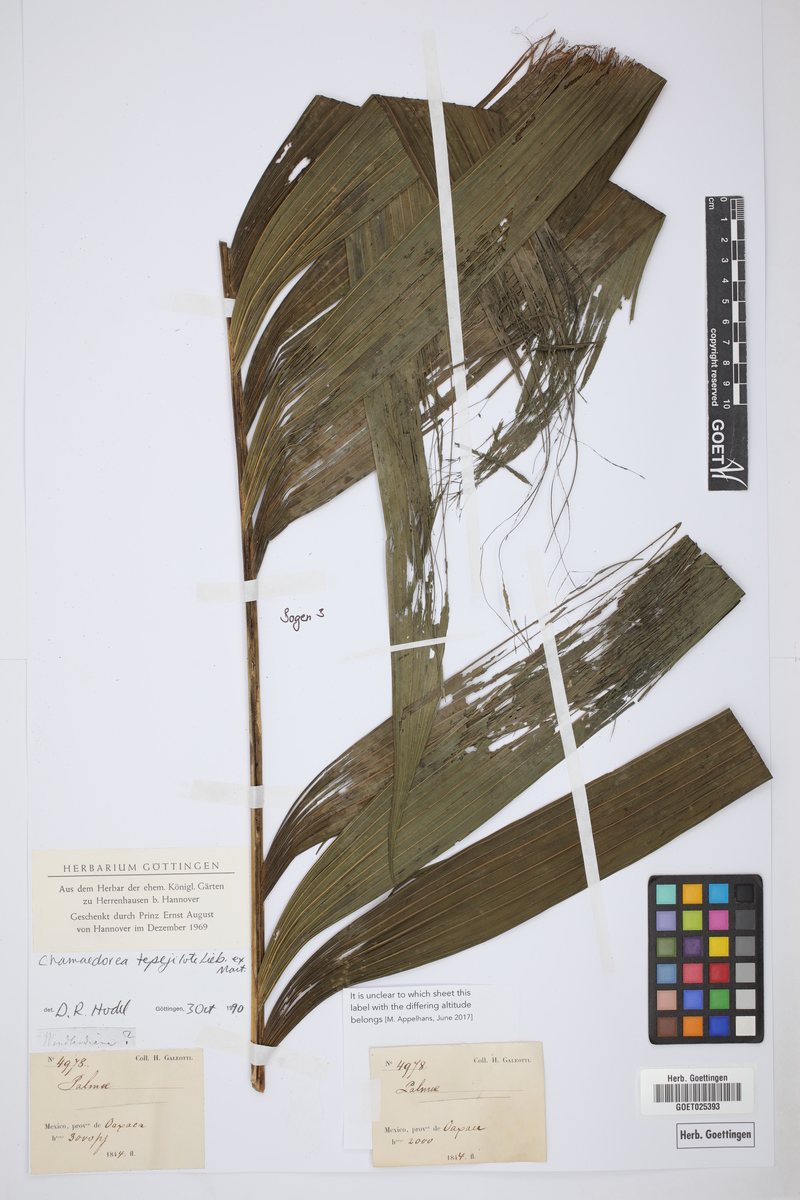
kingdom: Plantae
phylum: Tracheophyta
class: Liliopsida
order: Arecales
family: Arecaceae
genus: Chamaedorea
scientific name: Chamaedorea tepejilote
